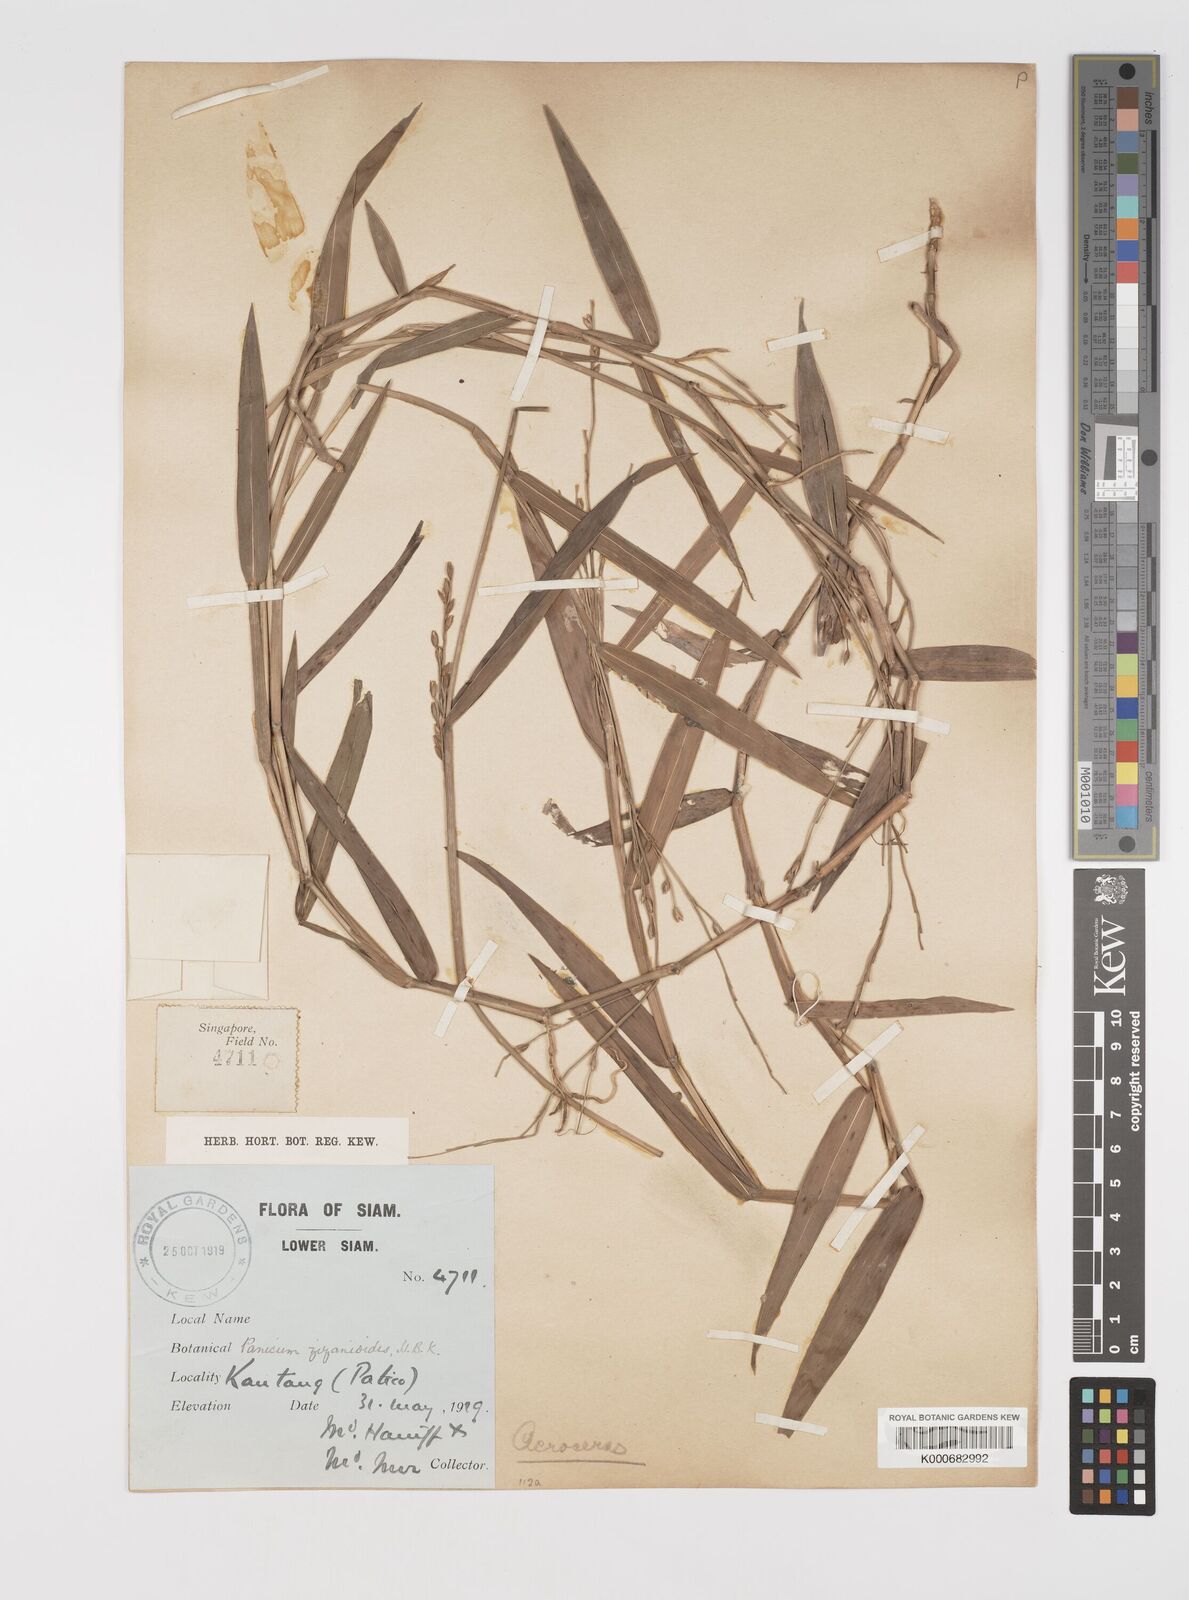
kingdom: Plantae
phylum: Tracheophyta
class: Liliopsida
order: Poales
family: Poaceae
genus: Acroceras
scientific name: Acroceras
